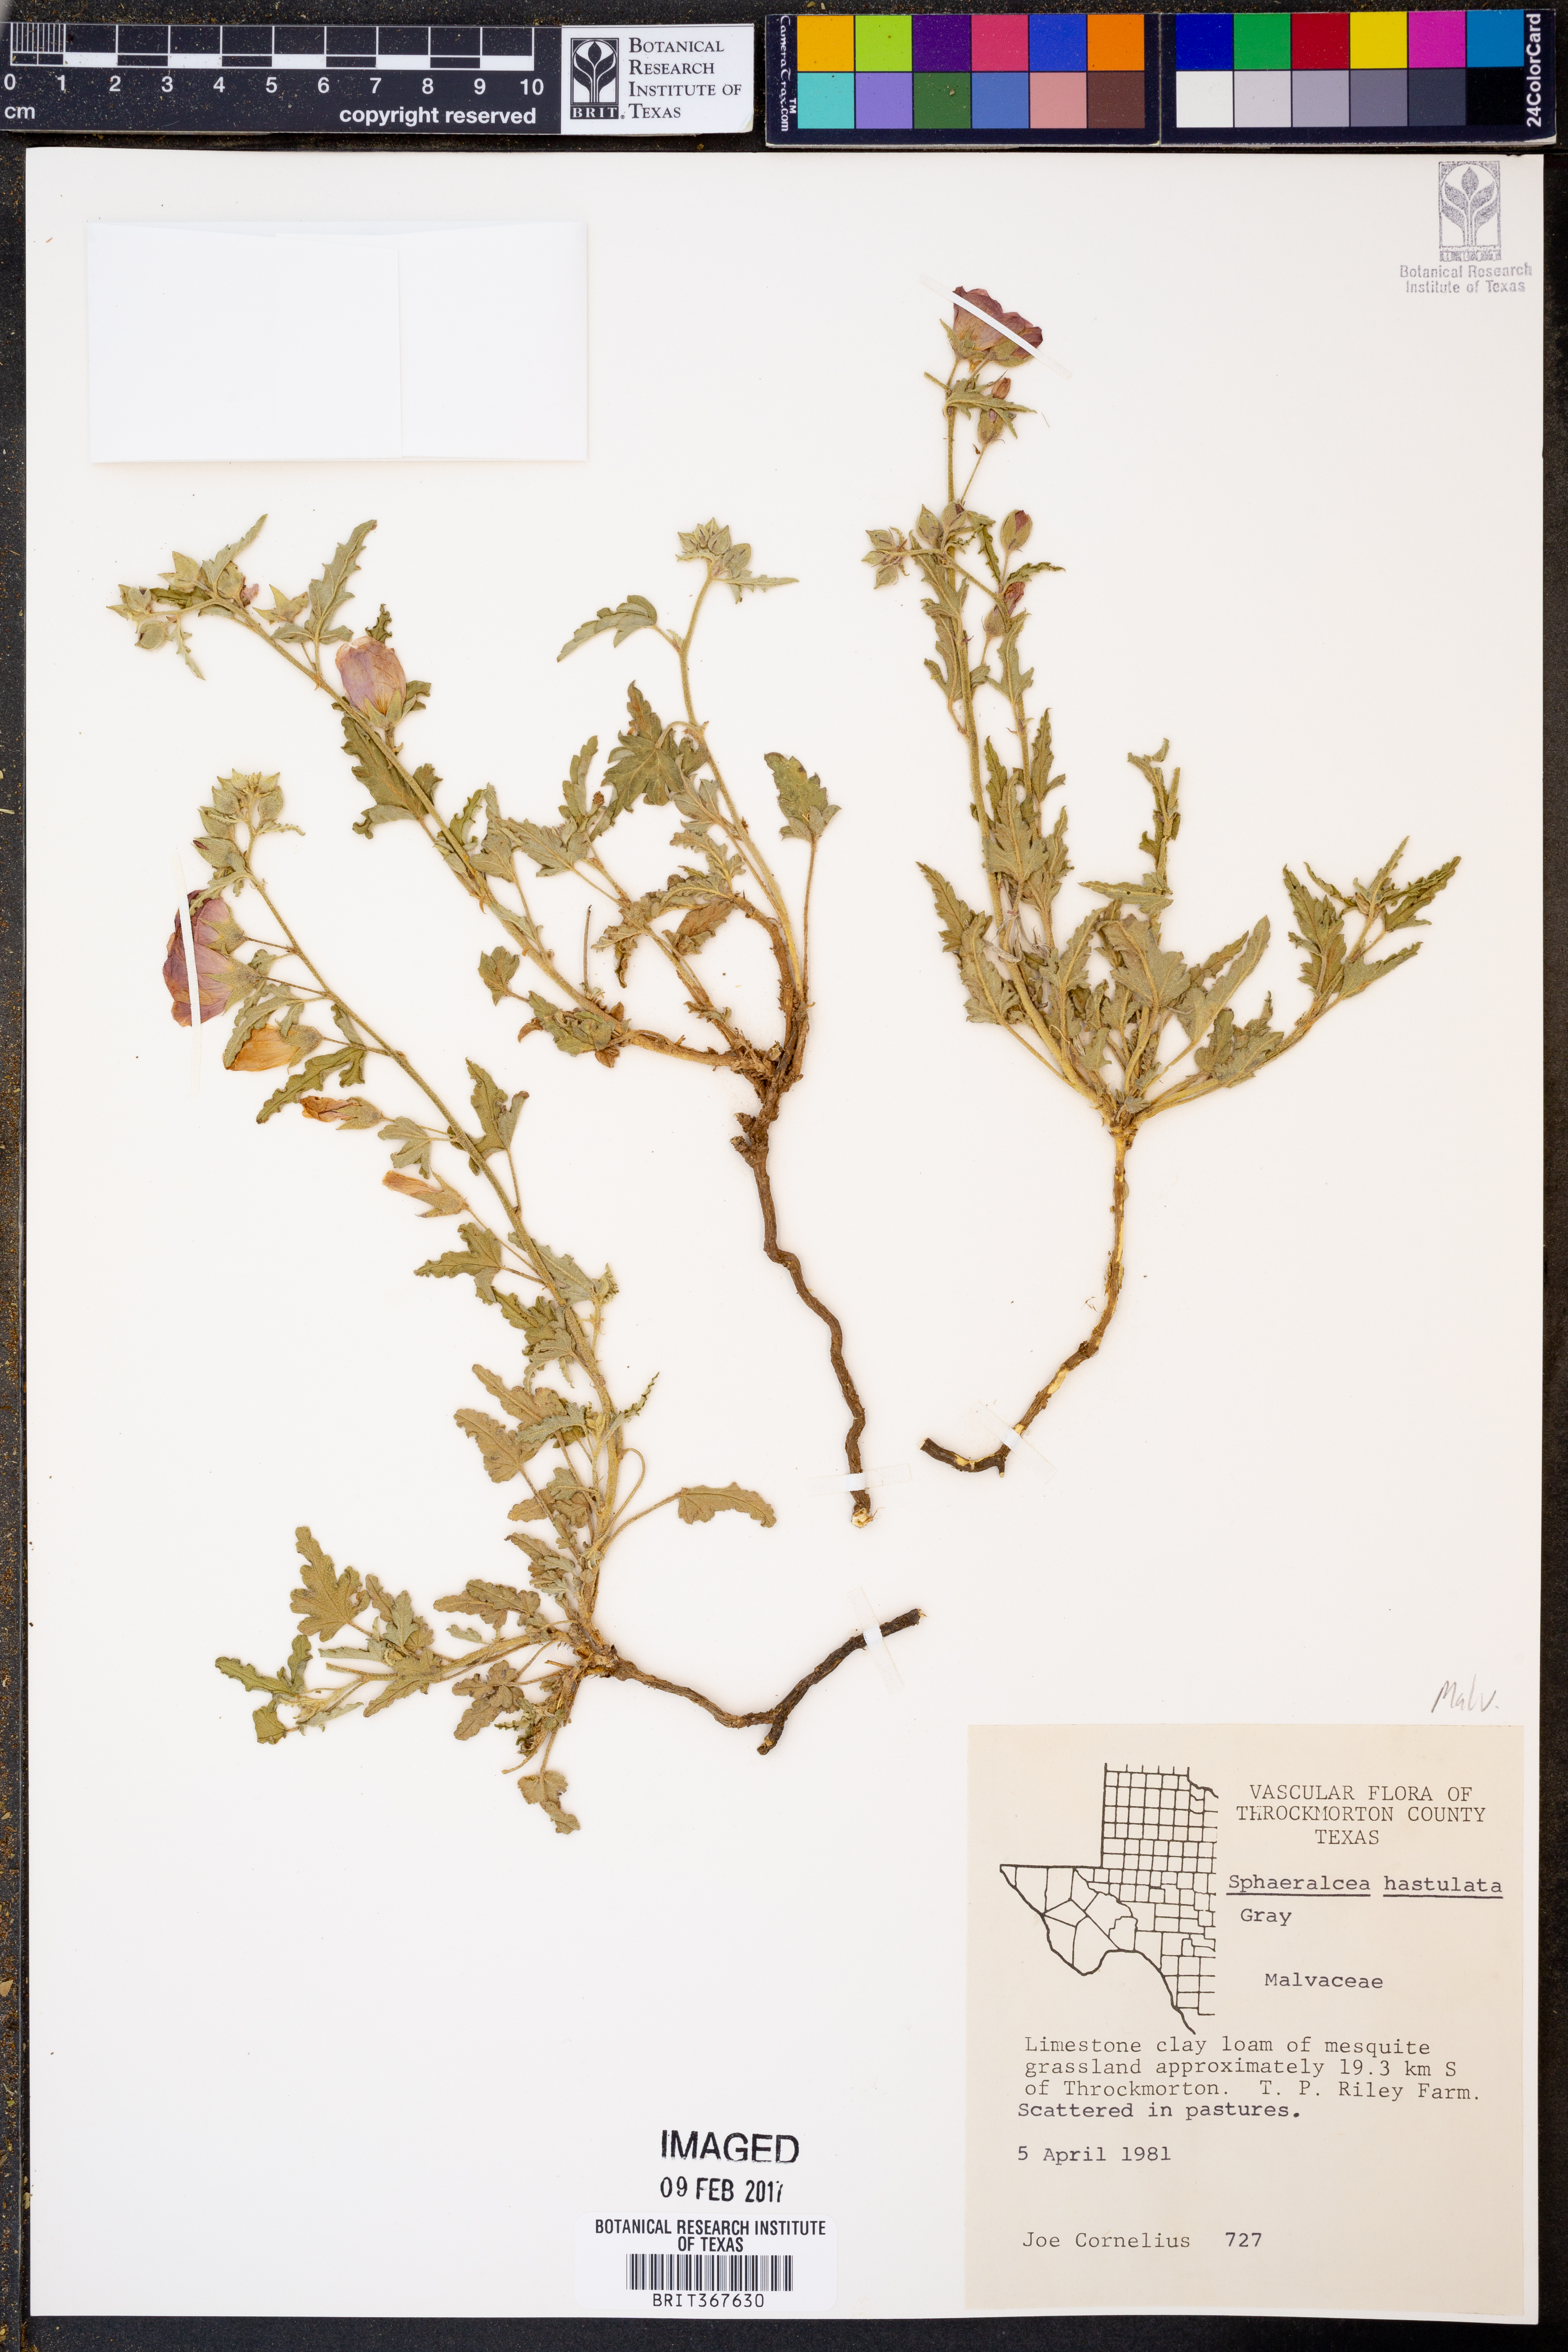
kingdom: Plantae
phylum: Tracheophyta
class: Magnoliopsida
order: Malvales
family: Malvaceae
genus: Sphaeralcea
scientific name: Sphaeralcea hastulata
